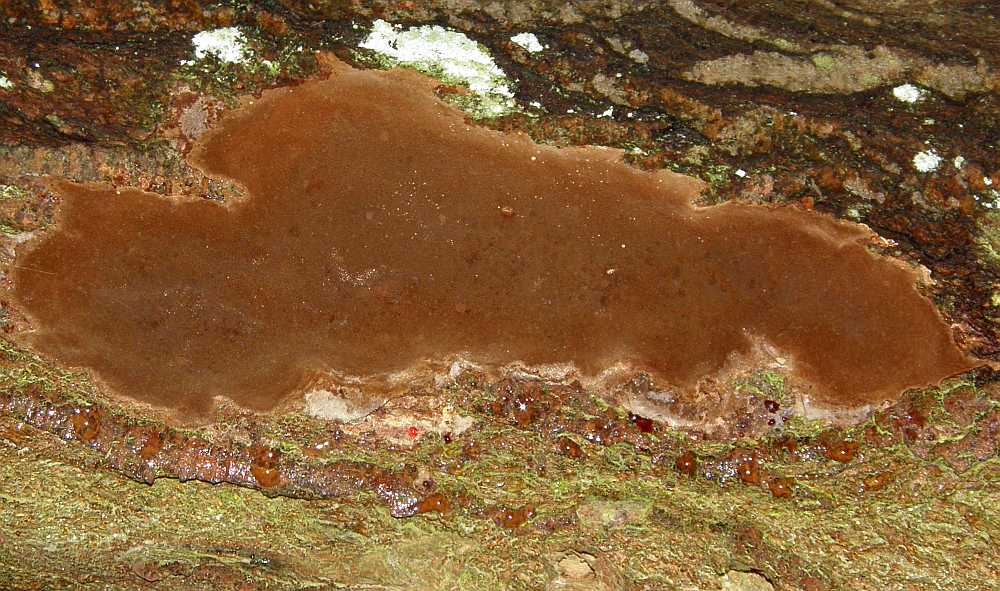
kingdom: Fungi
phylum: Basidiomycota
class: Agaricomycetes
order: Hymenochaetales
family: Hymenochaetaceae
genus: Fomitiporia
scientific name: Fomitiporia punctata
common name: pude-ildporesvamp
